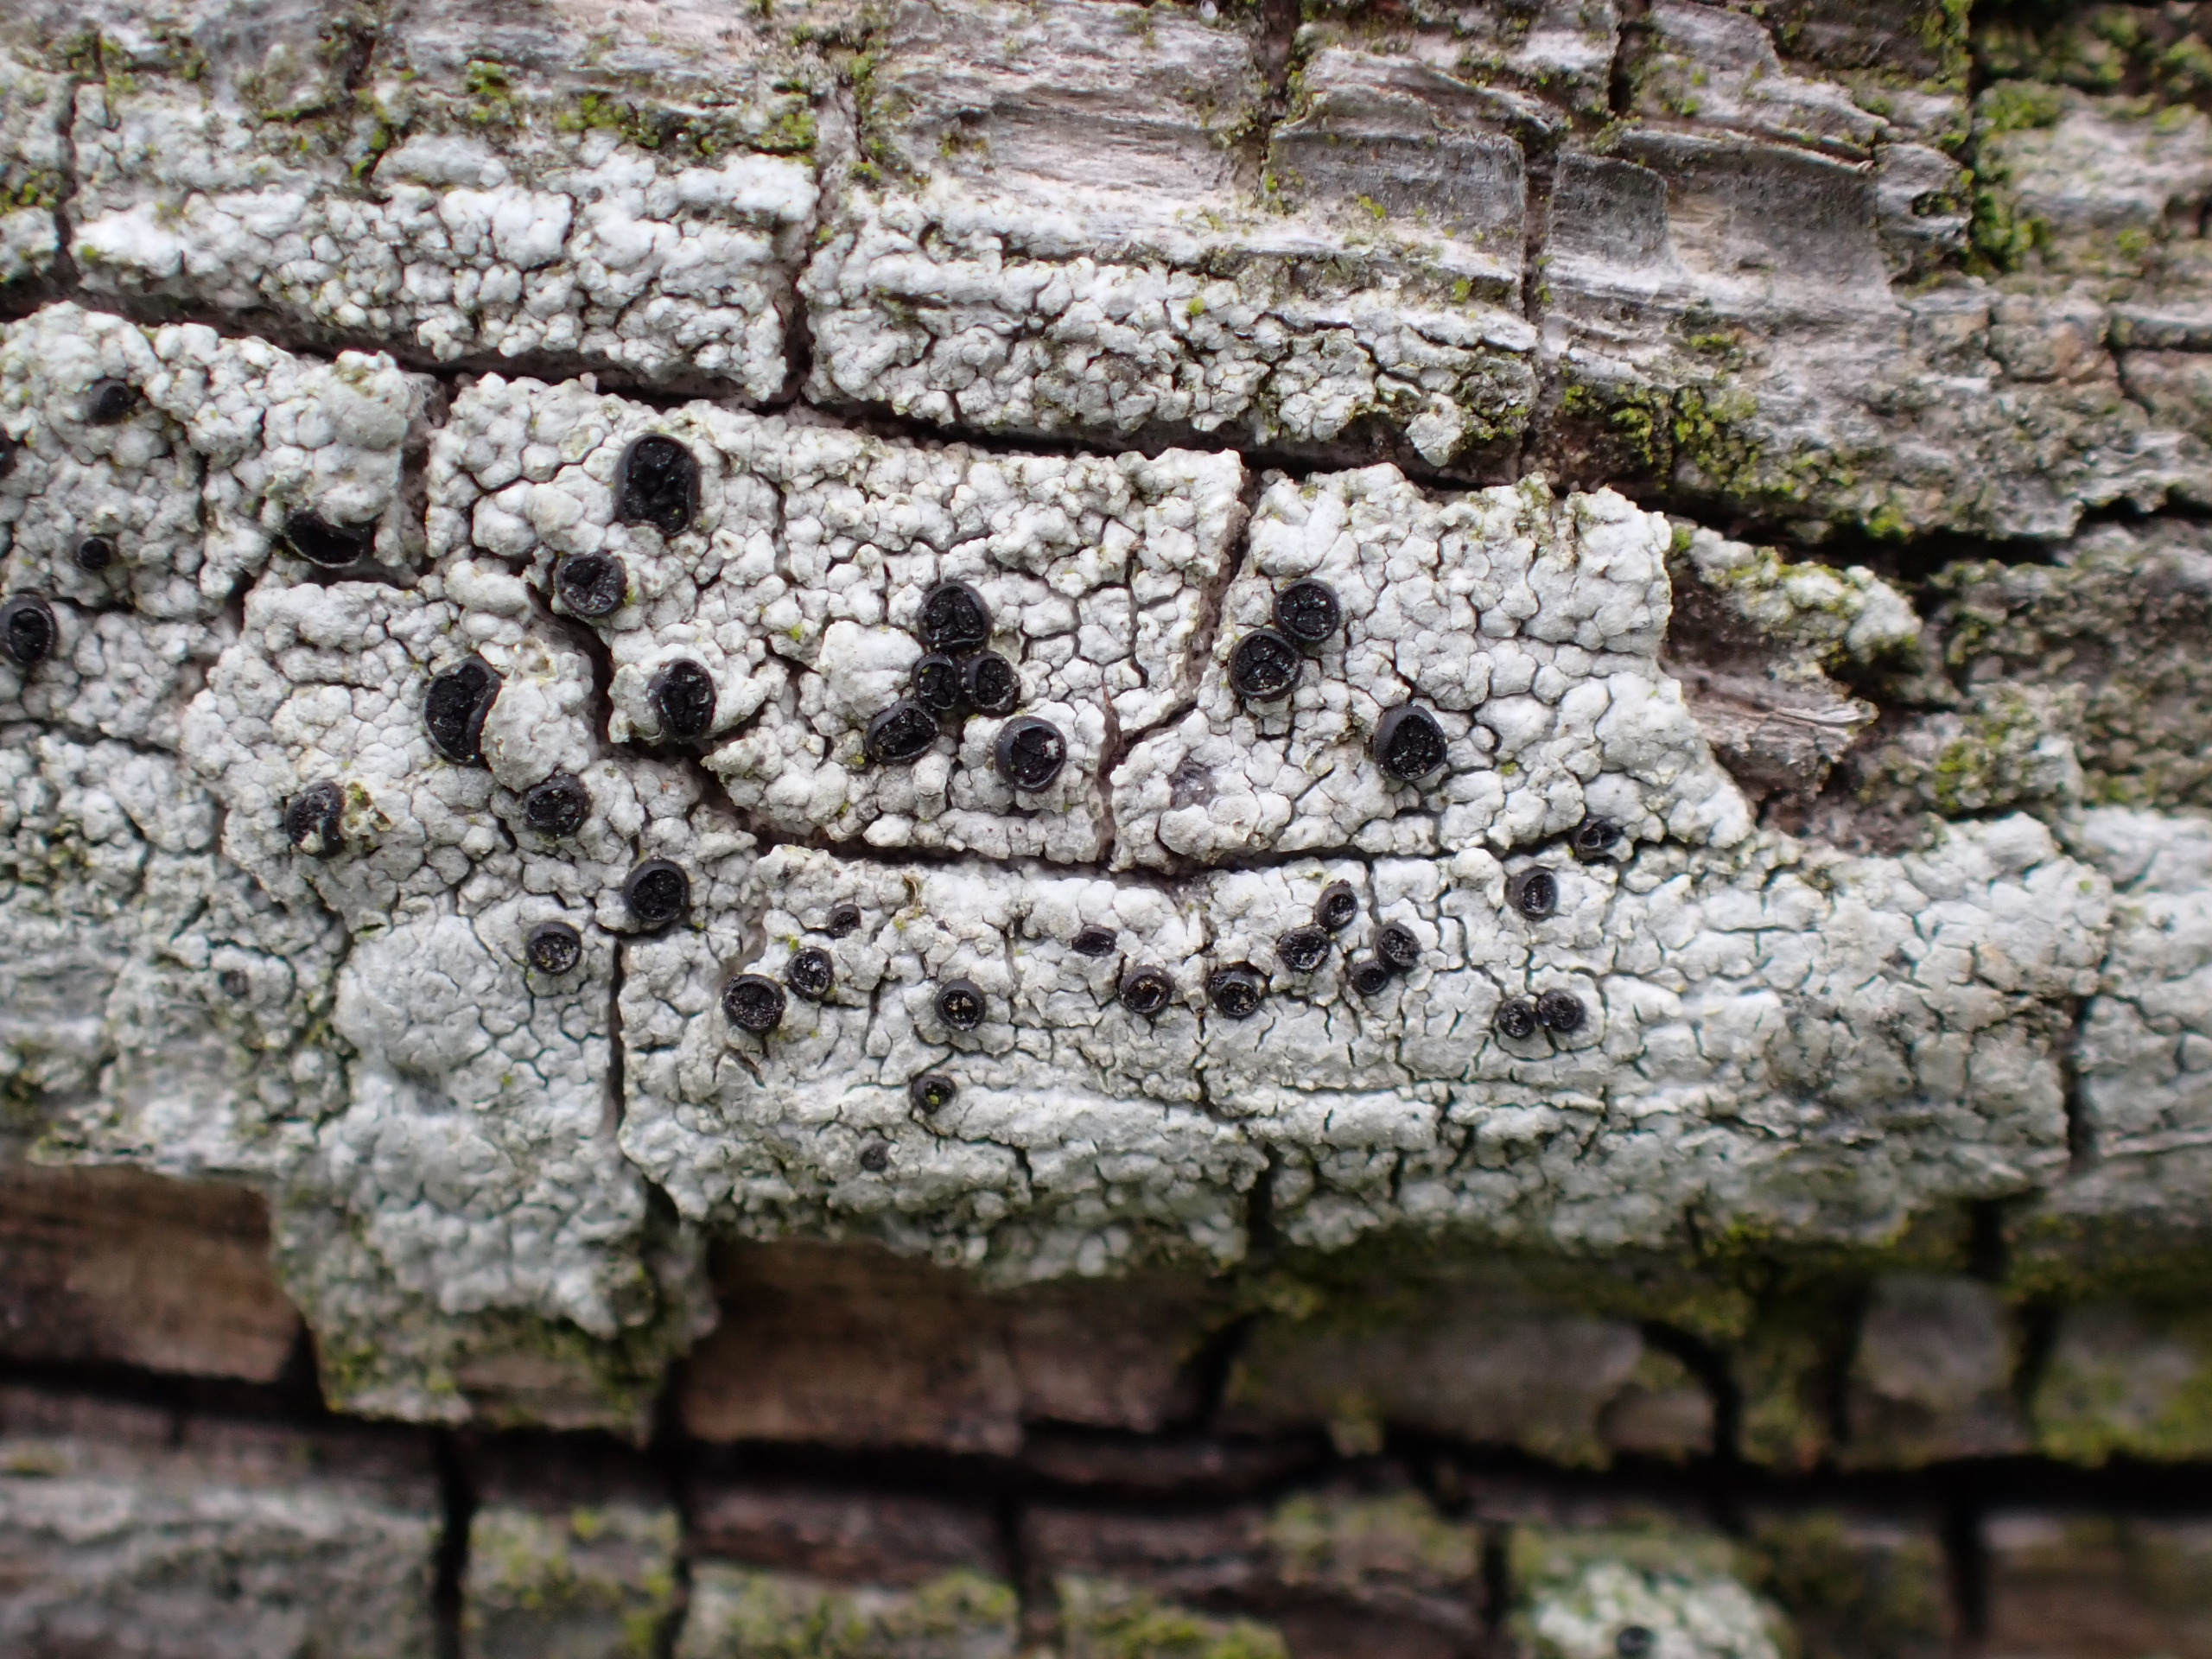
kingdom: Fungi
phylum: Ascomycota
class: Lecanoromycetes
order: Caliciales
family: Caliciaceae
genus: Acolium
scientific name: Acolium inquinans
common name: Siddende sodlav
